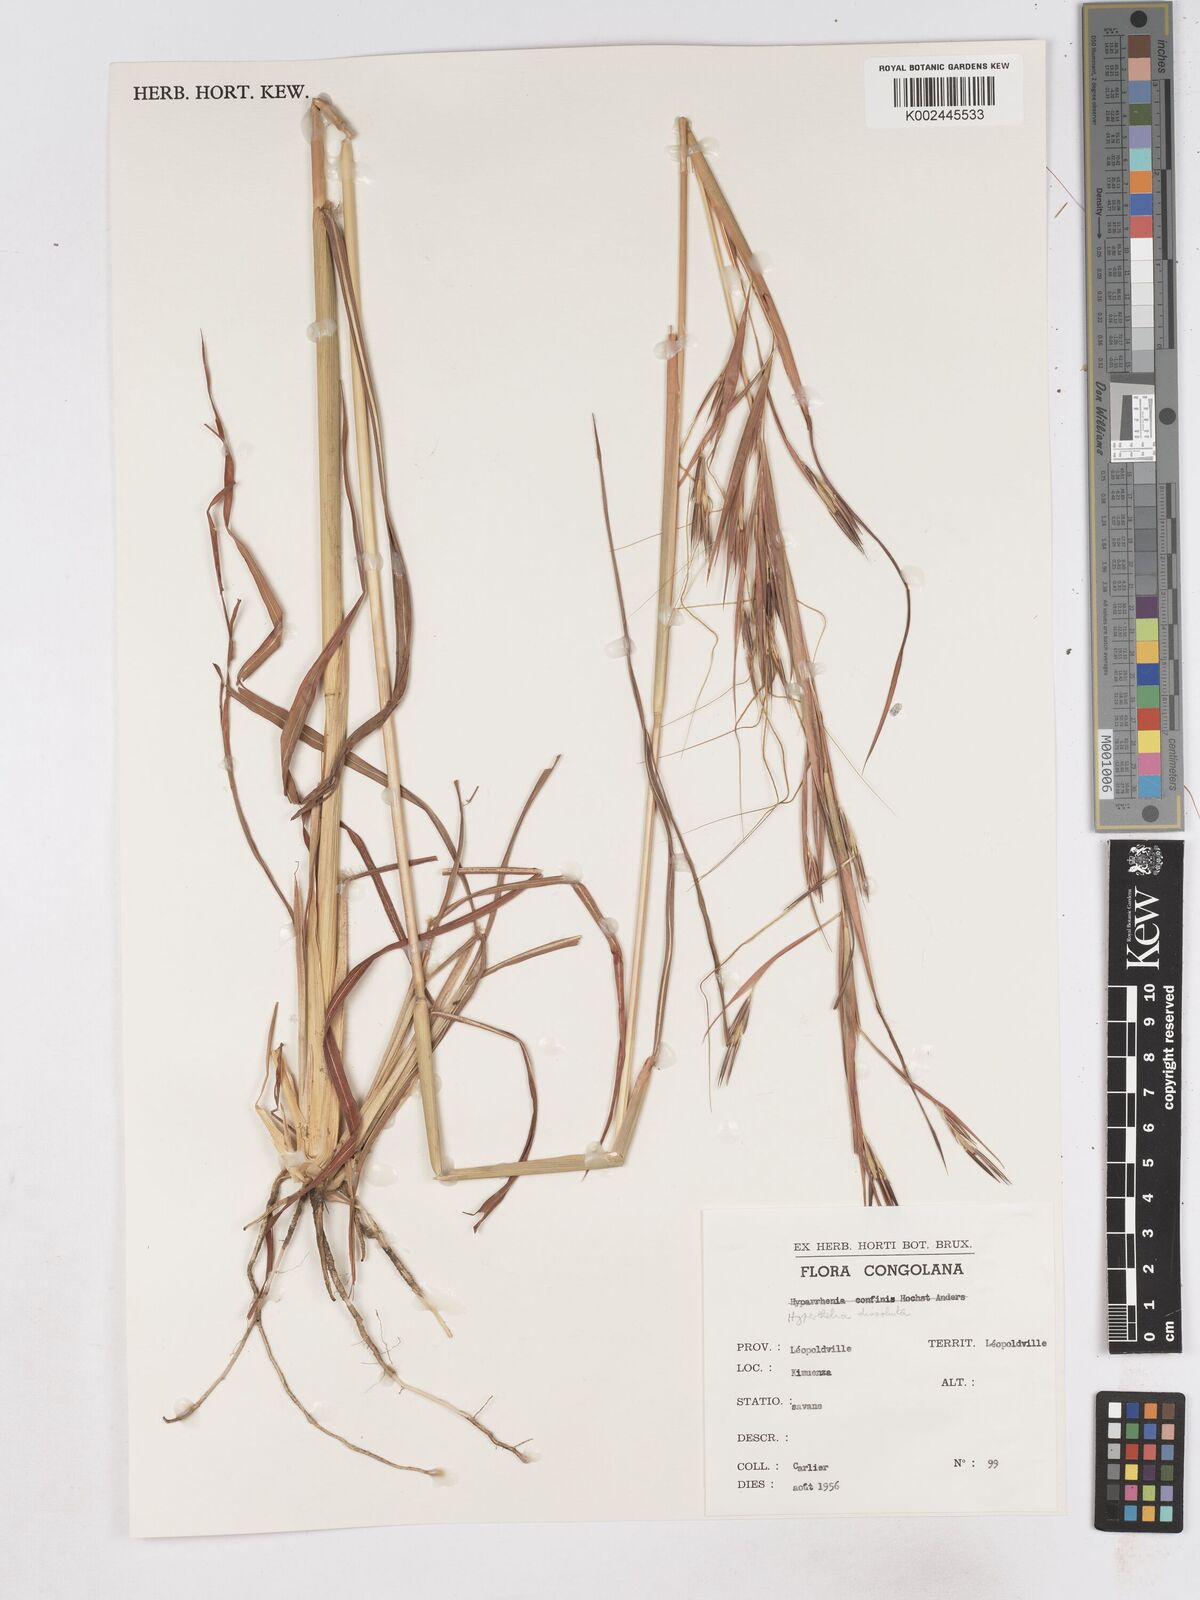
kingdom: Plantae
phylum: Tracheophyta
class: Liliopsida
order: Poales
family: Poaceae
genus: Hyperthelia
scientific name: Hyperthelia dissoluta
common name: Yellow thatching grass
